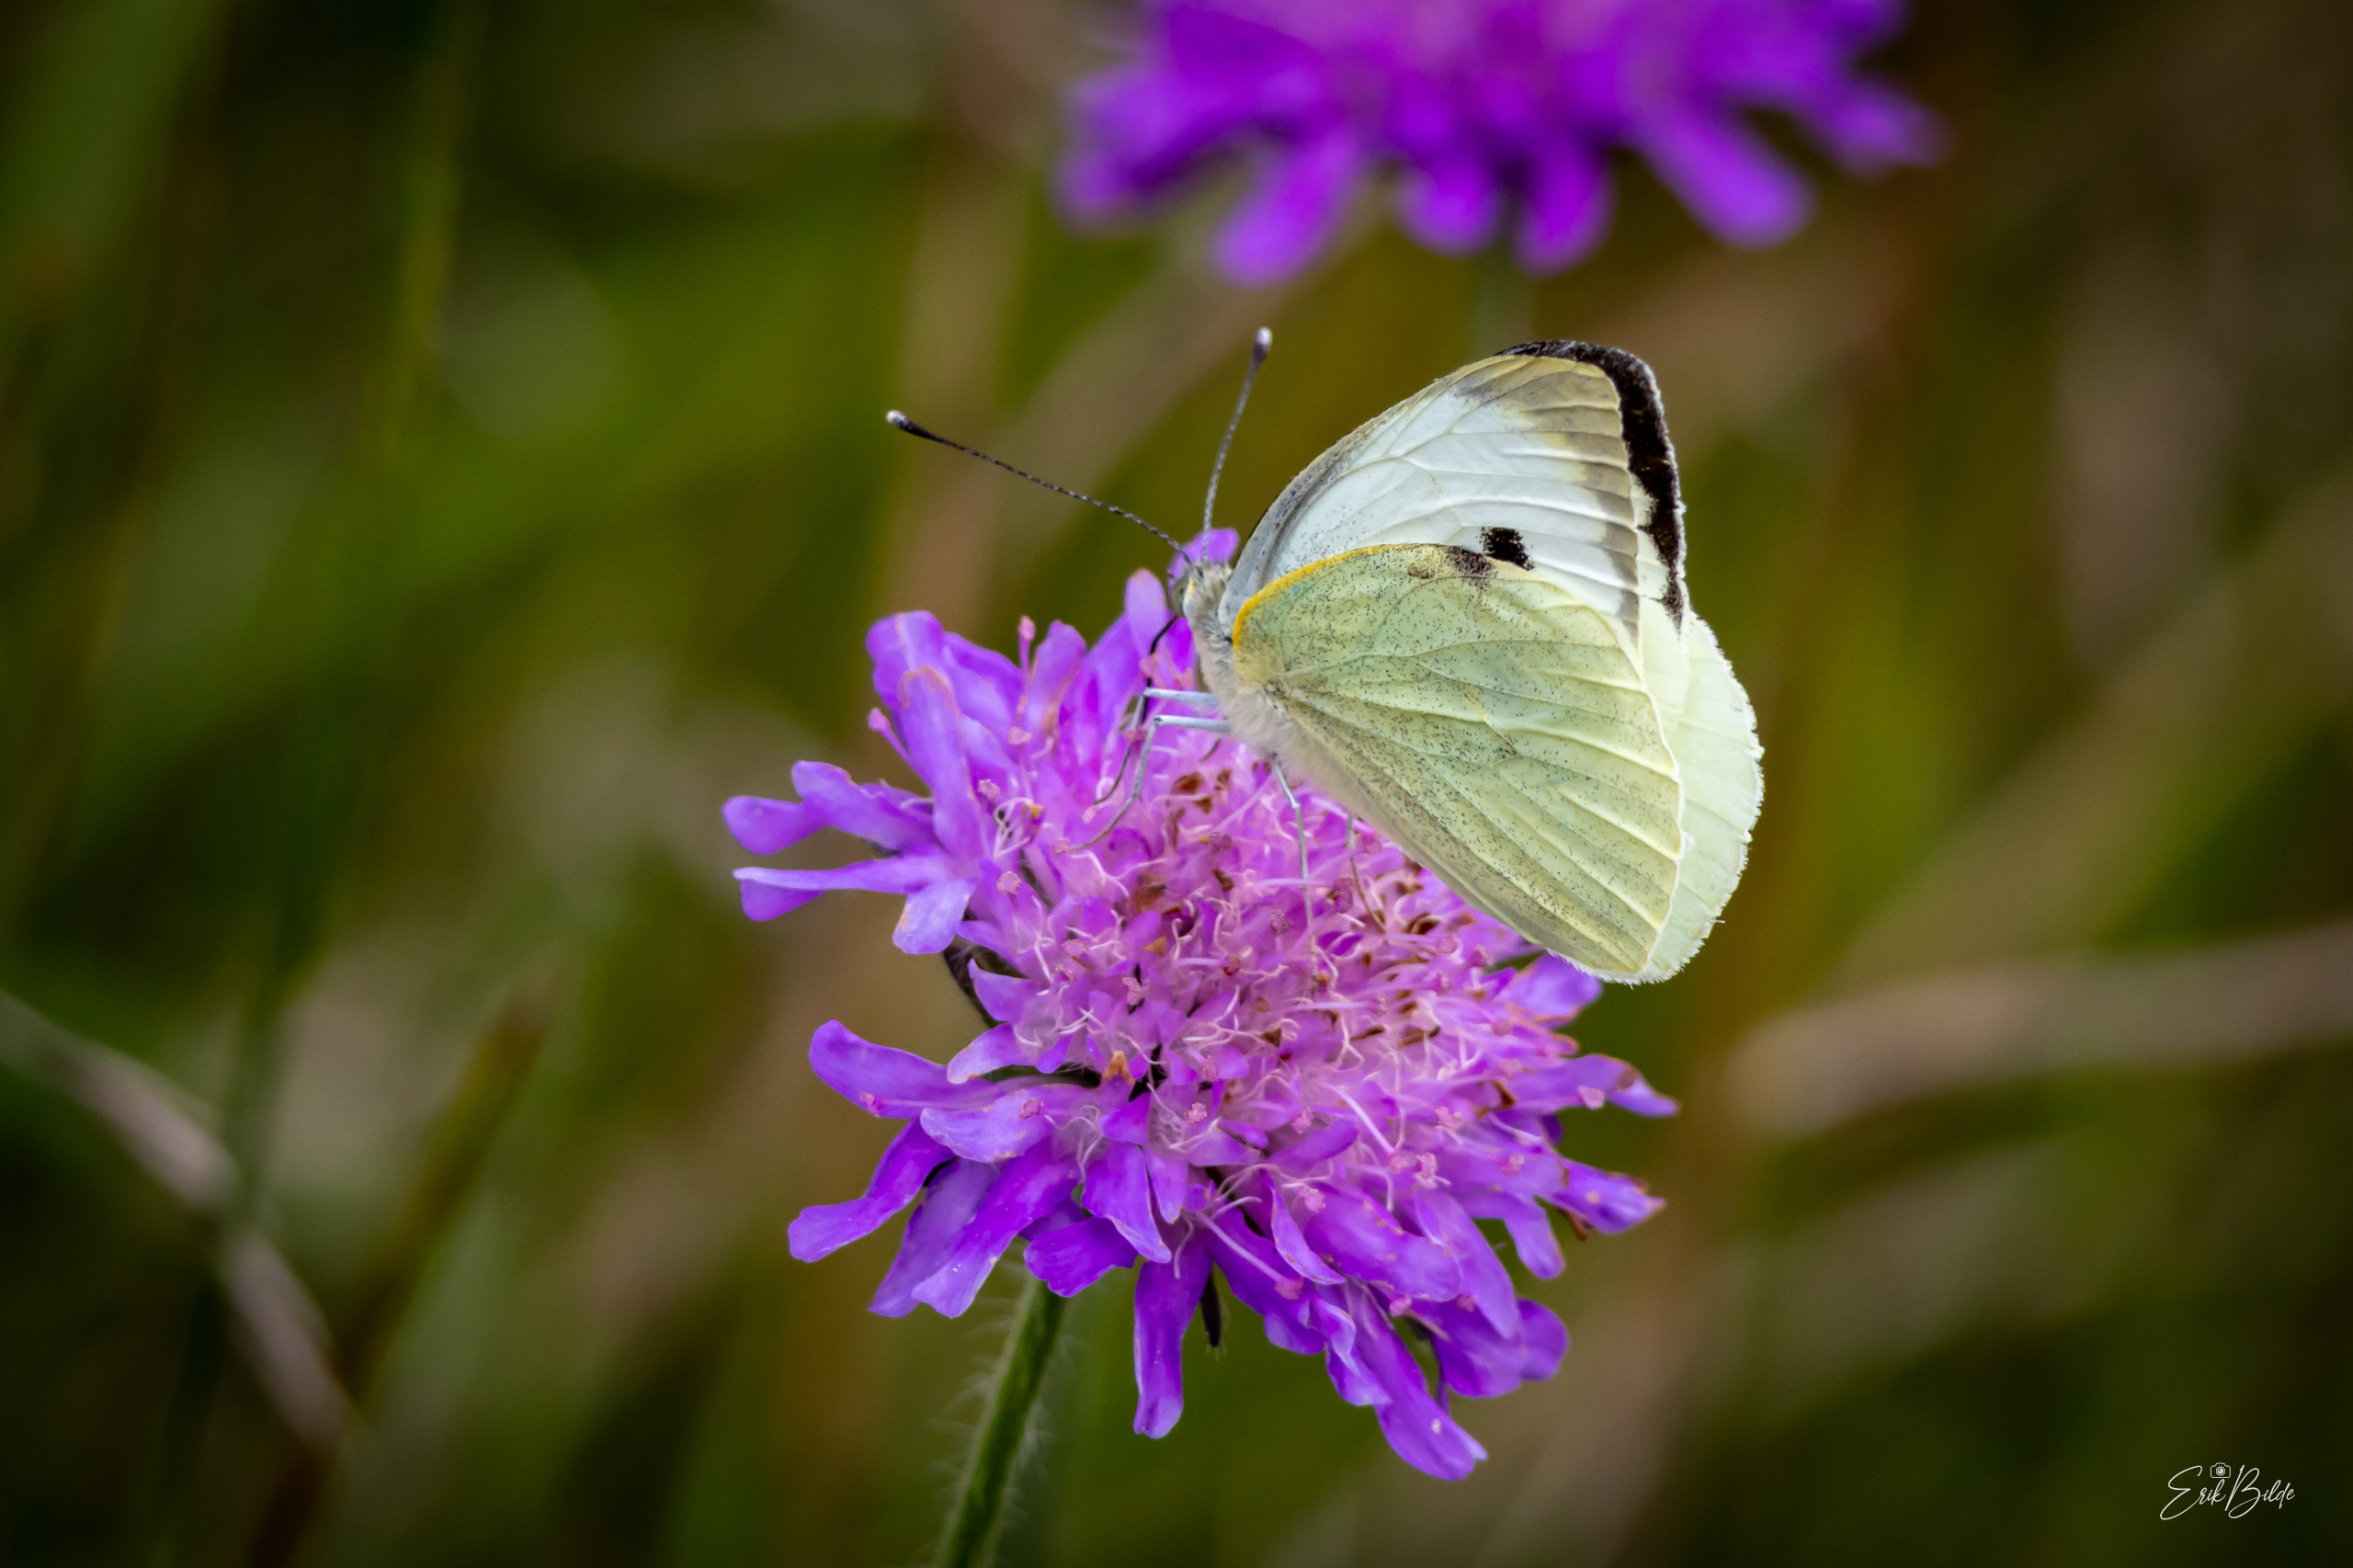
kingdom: Animalia
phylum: Arthropoda
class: Insecta
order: Lepidoptera
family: Pieridae
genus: Pieris
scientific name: Pieris brassicae
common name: Stor kålsommerfugl
